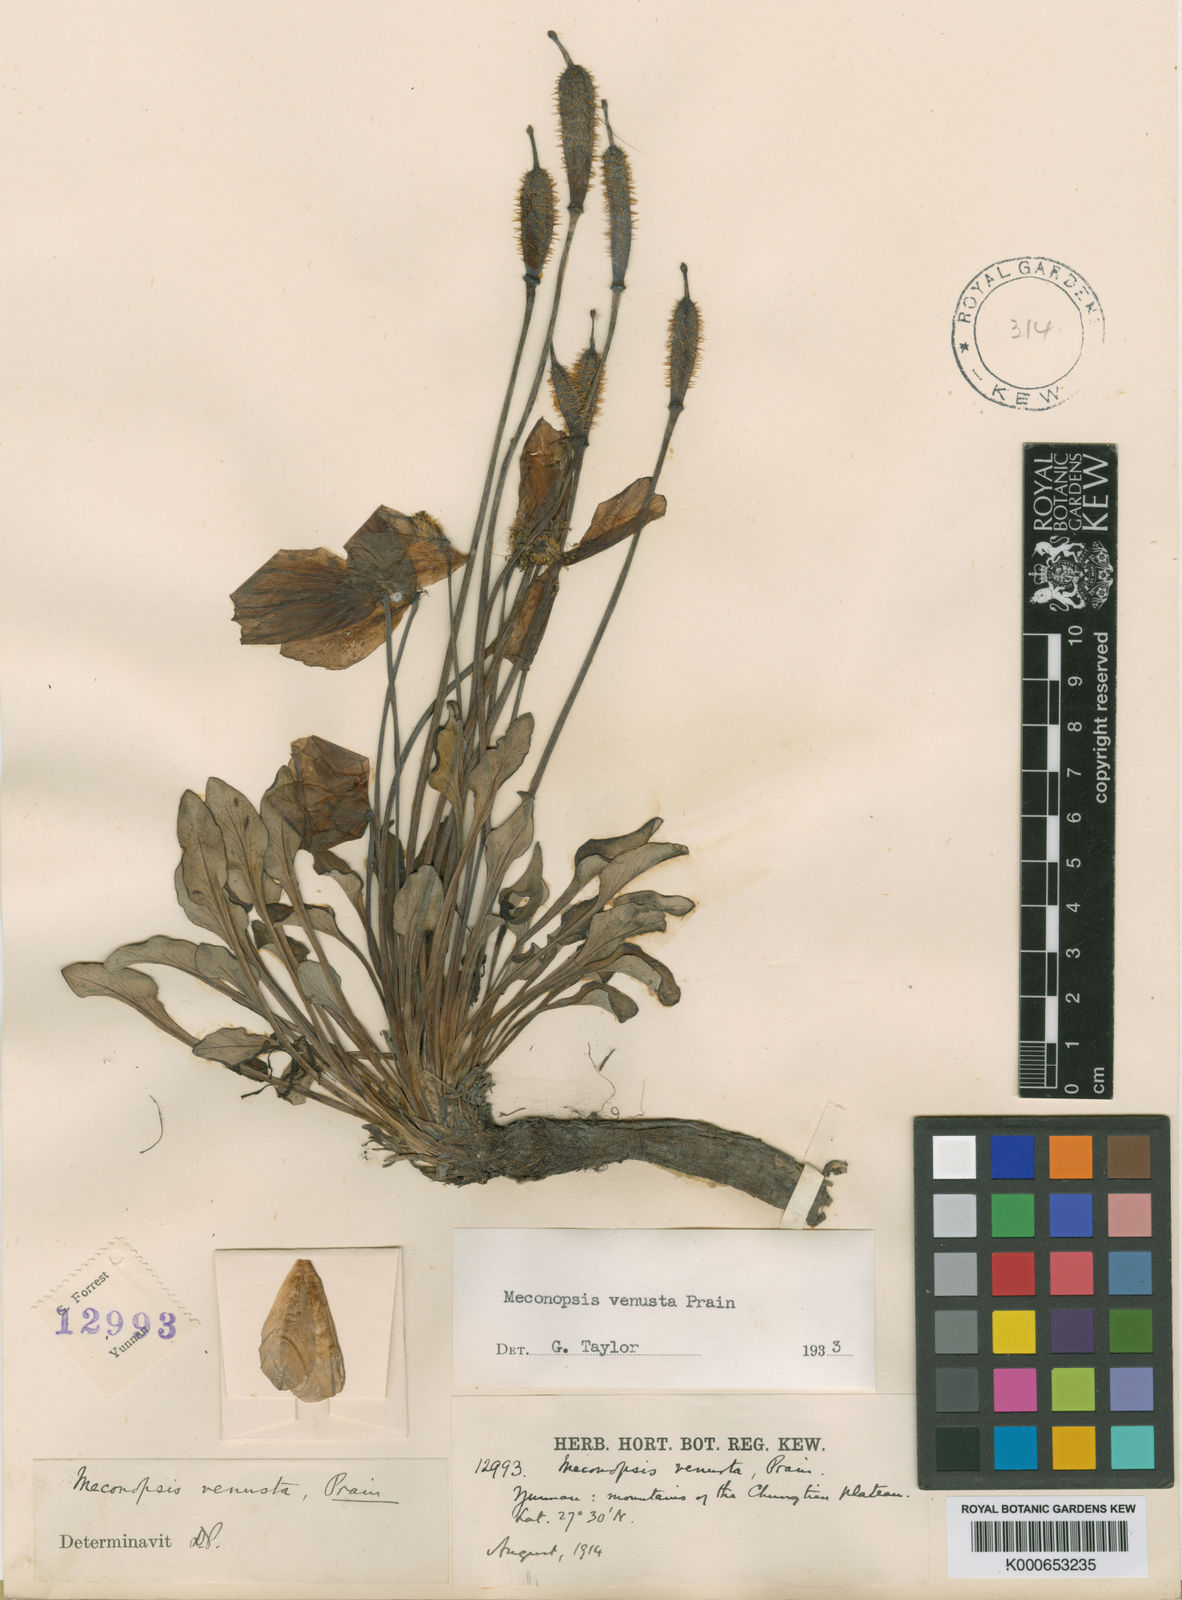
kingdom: Plantae
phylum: Tracheophyta
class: Magnoliopsida
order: Ranunculales
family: Papaveraceae
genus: Meconopsis
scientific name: Meconopsis venusta
